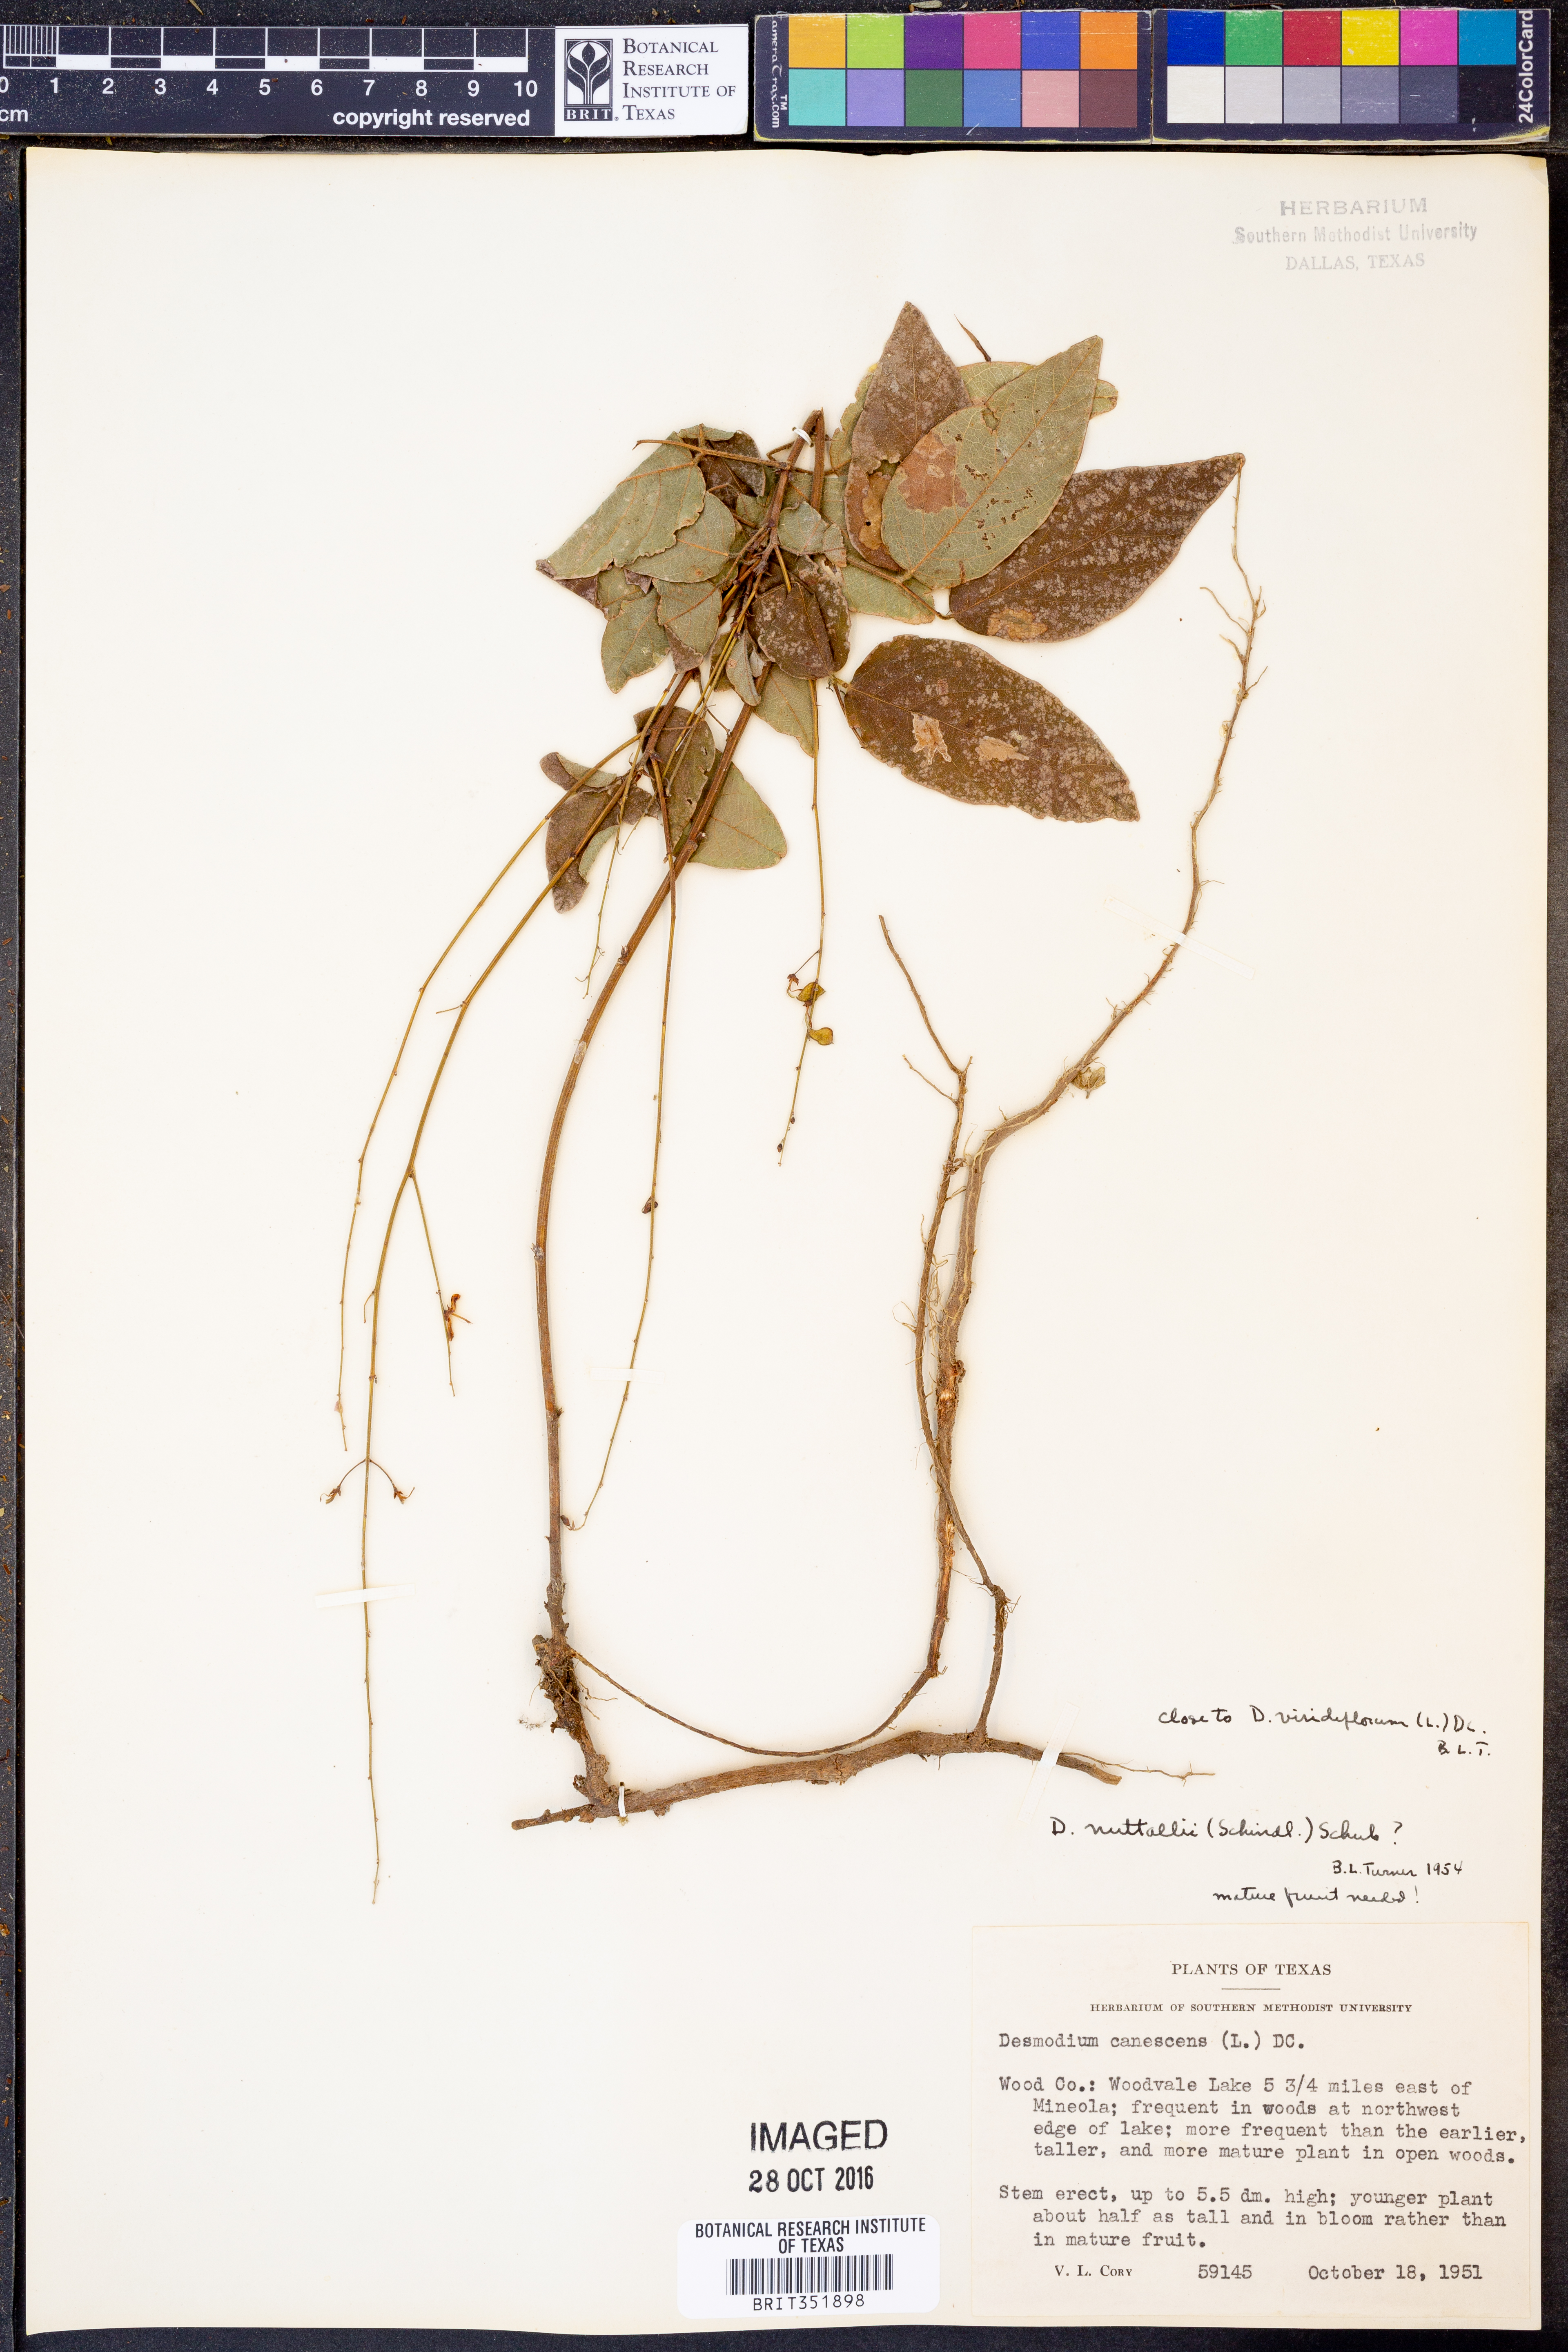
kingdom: Plantae
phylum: Tracheophyta
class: Magnoliopsida
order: Fabales
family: Fabaceae
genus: Desmodium
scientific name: Desmodium nuttallii
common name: Nuttall's tick trefoil
